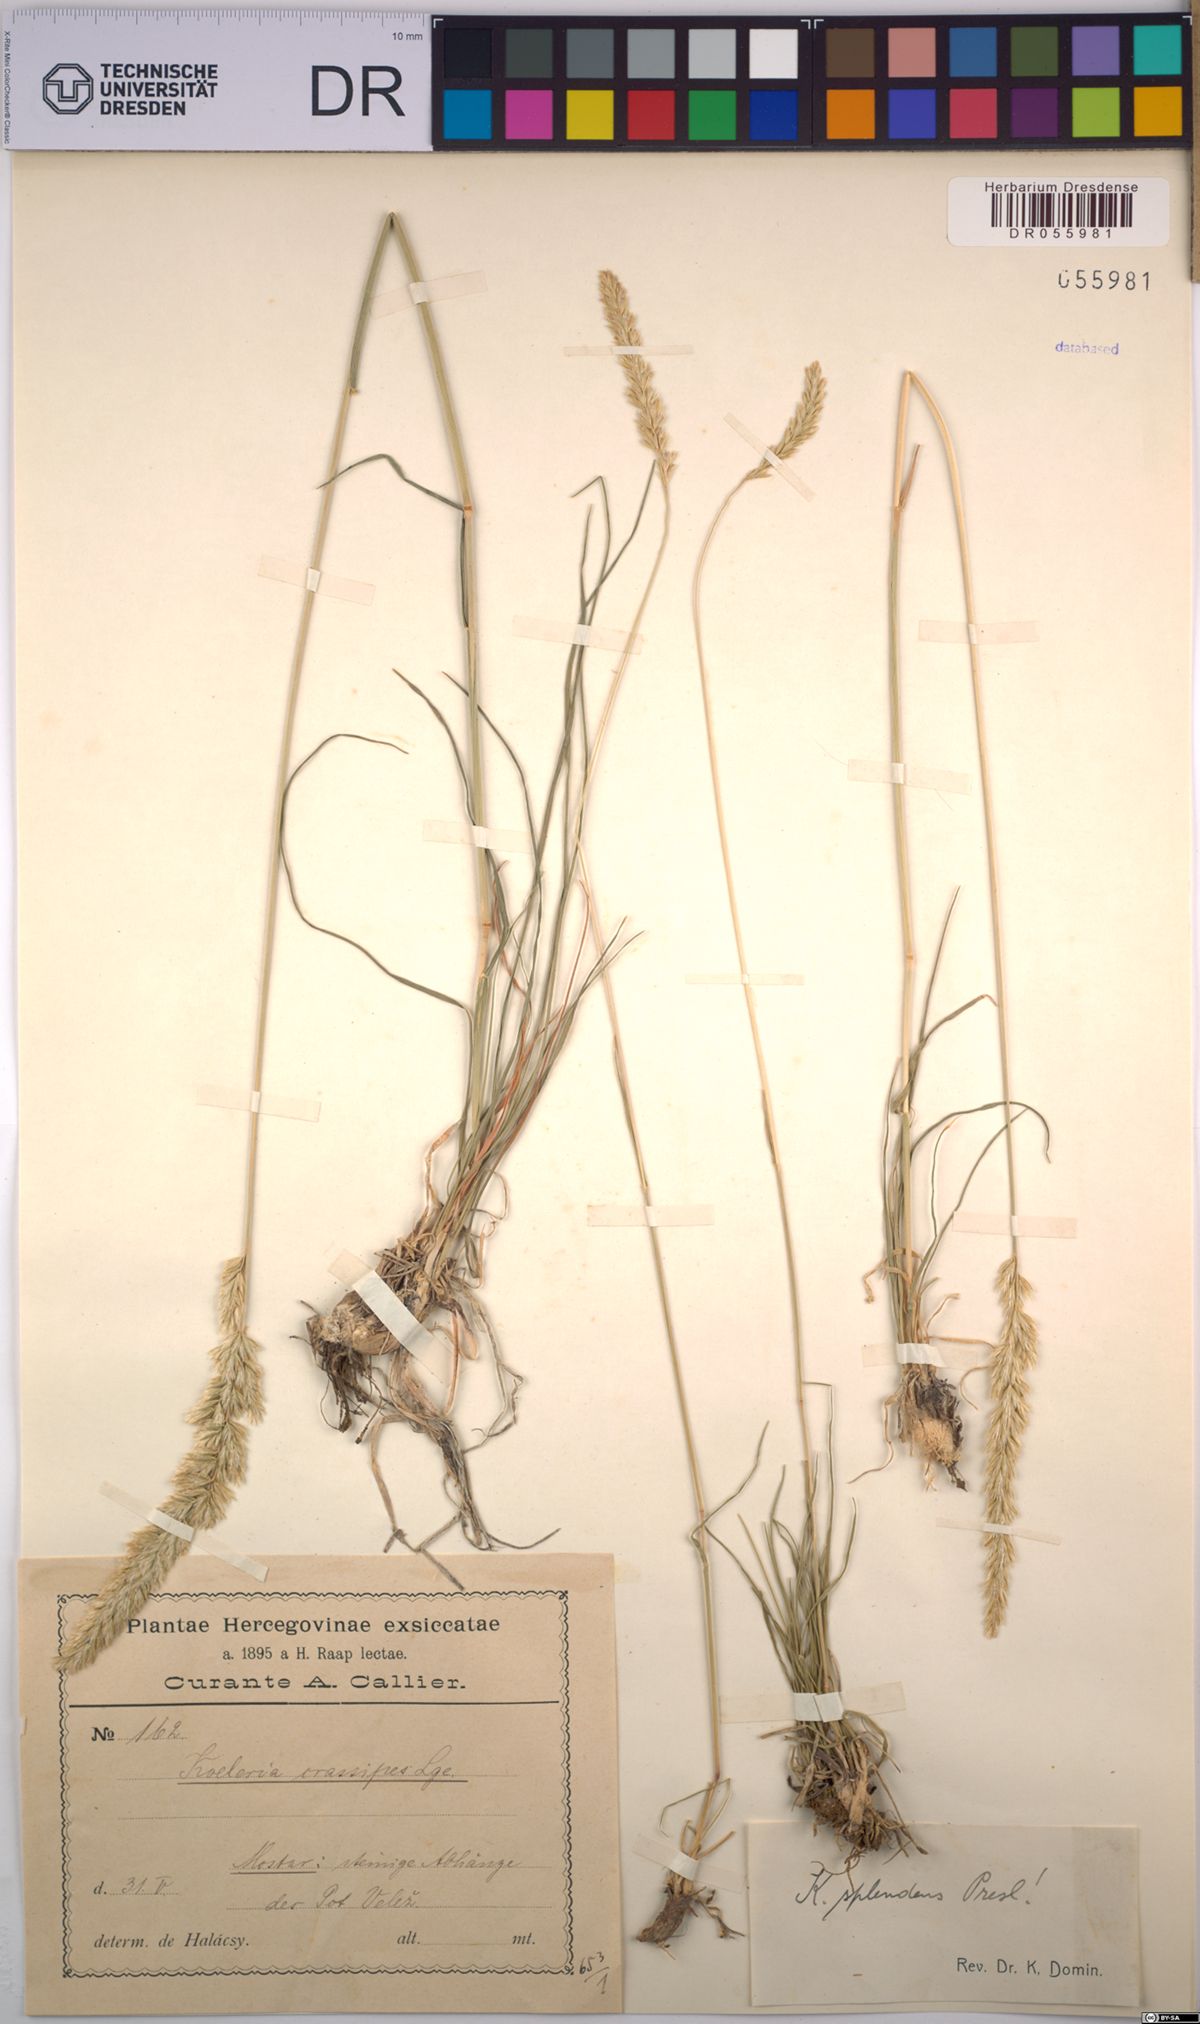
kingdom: Plantae
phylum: Tracheophyta
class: Liliopsida
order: Poales
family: Poaceae
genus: Koeleria
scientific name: Koeleria splendens
